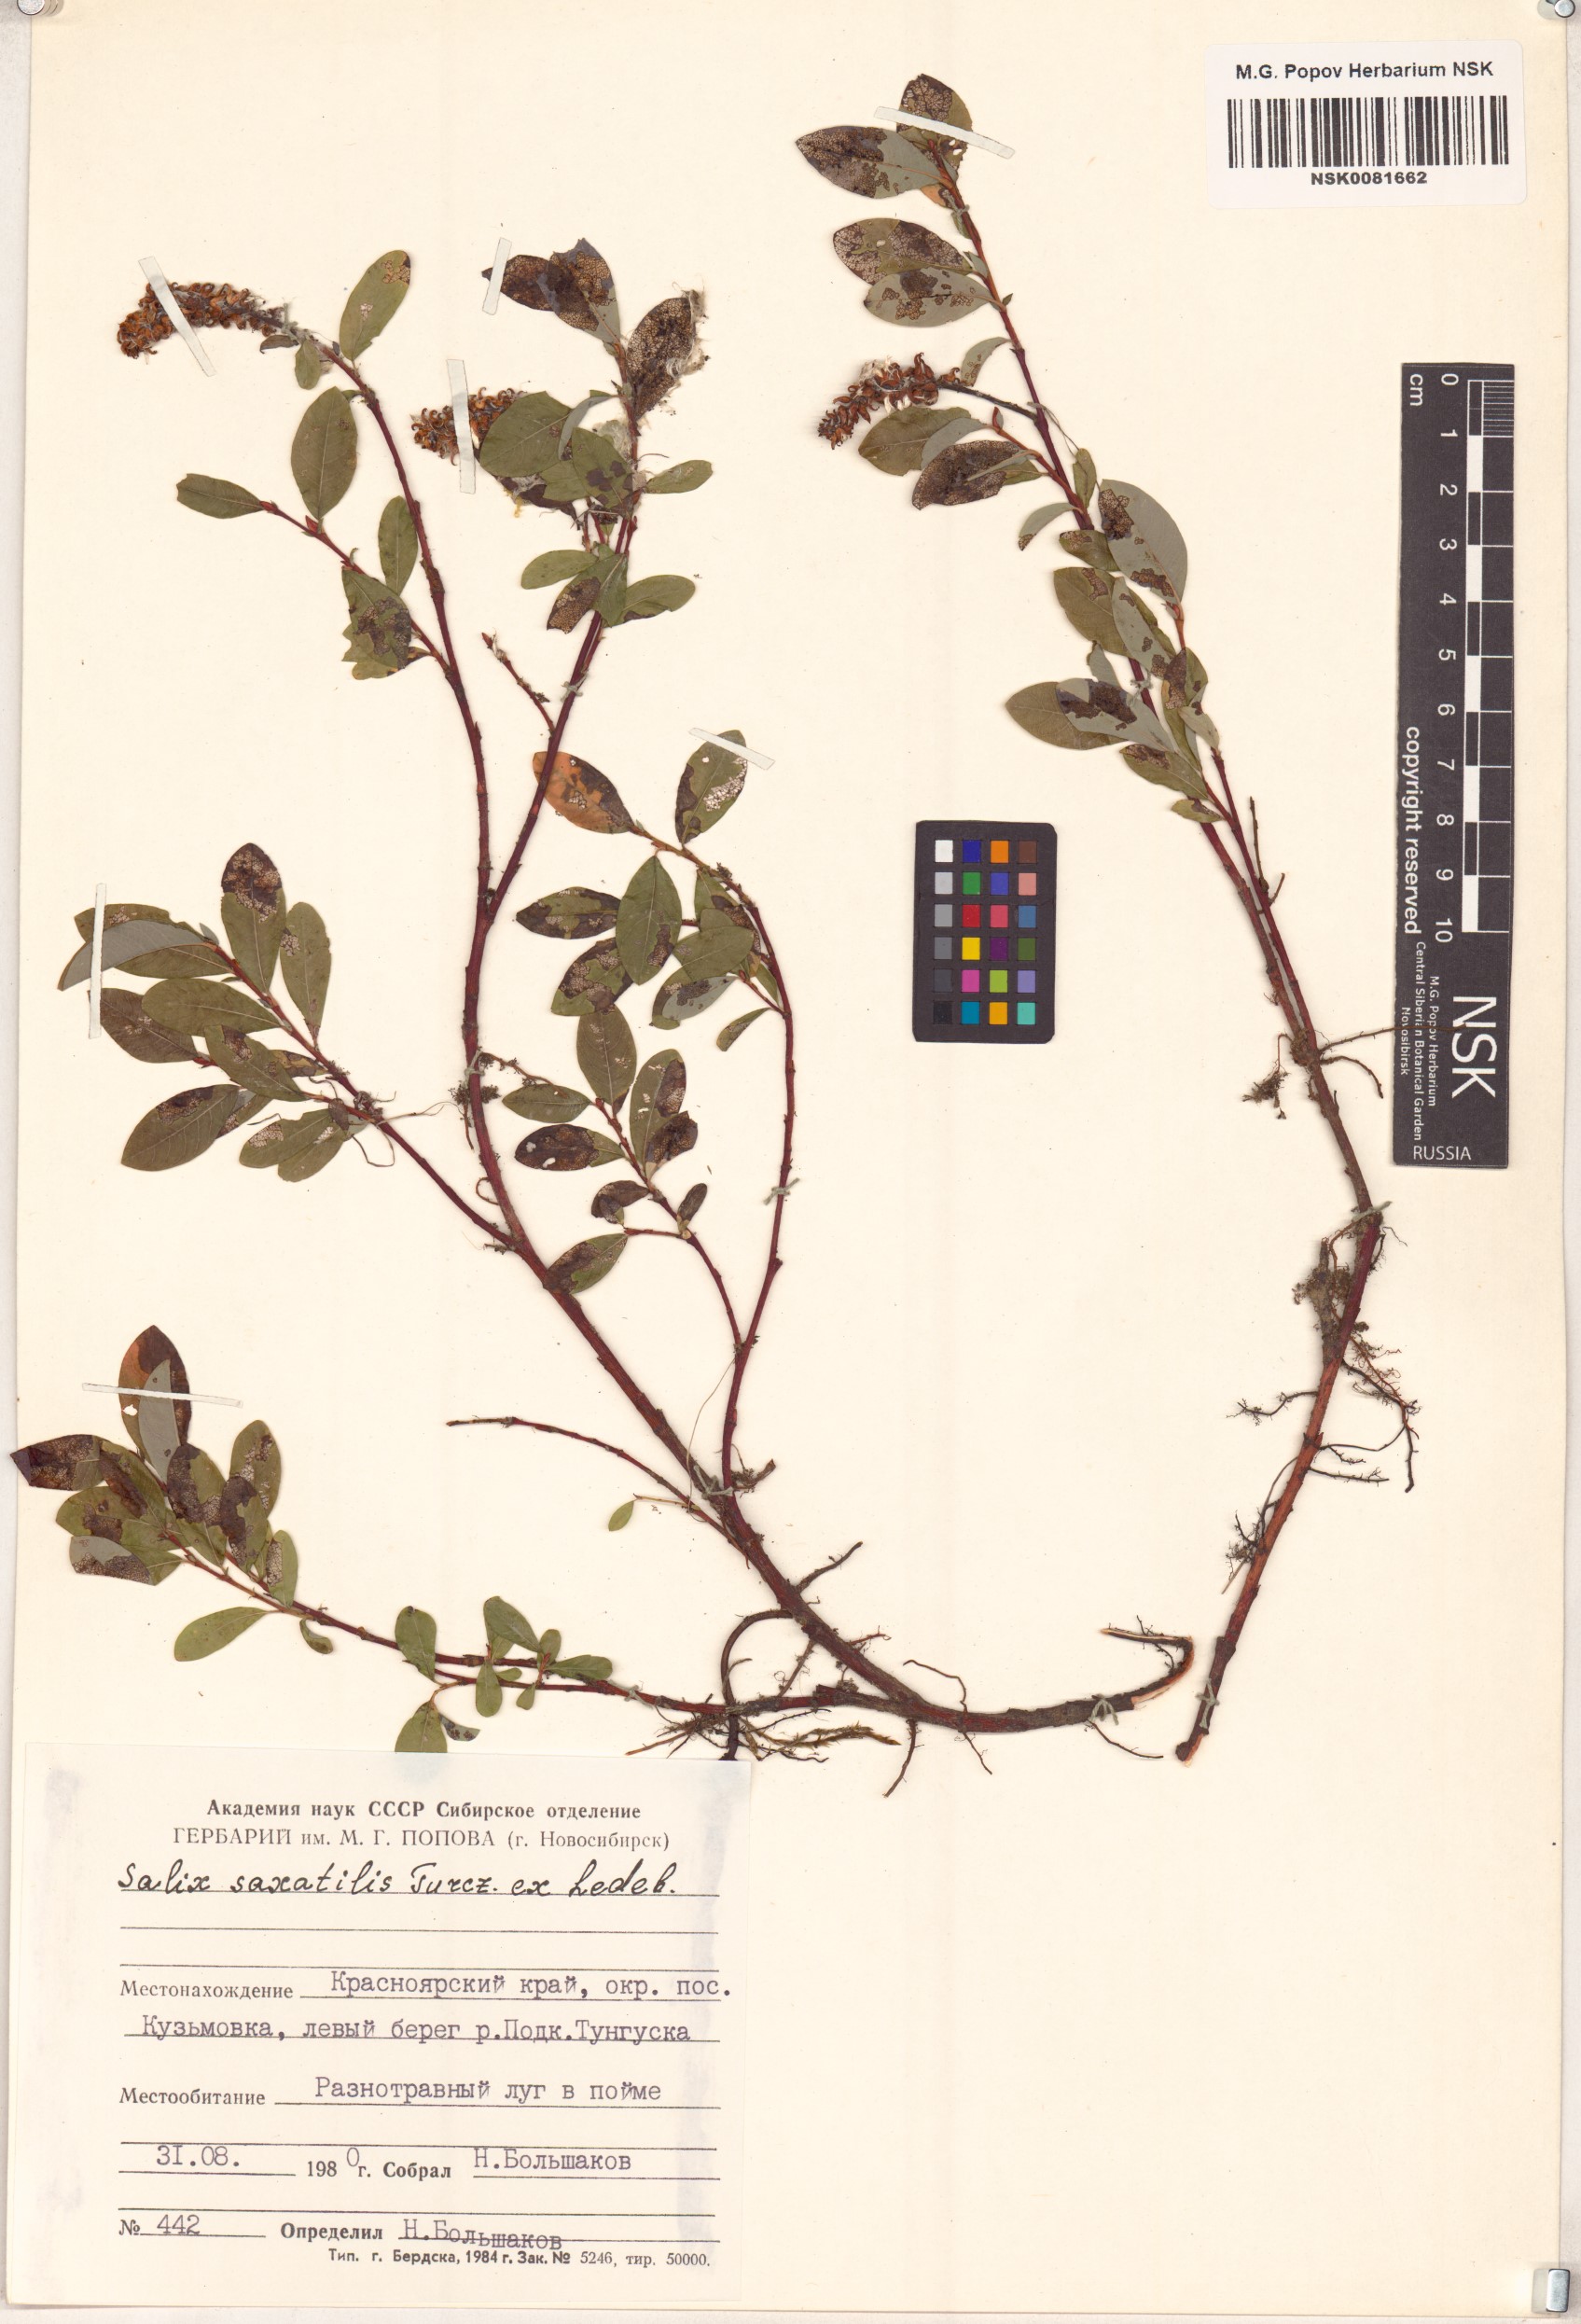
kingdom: Plantae
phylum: Tracheophyta
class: Magnoliopsida
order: Malpighiales
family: Salicaceae
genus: Salix
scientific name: Salix saxatilis
